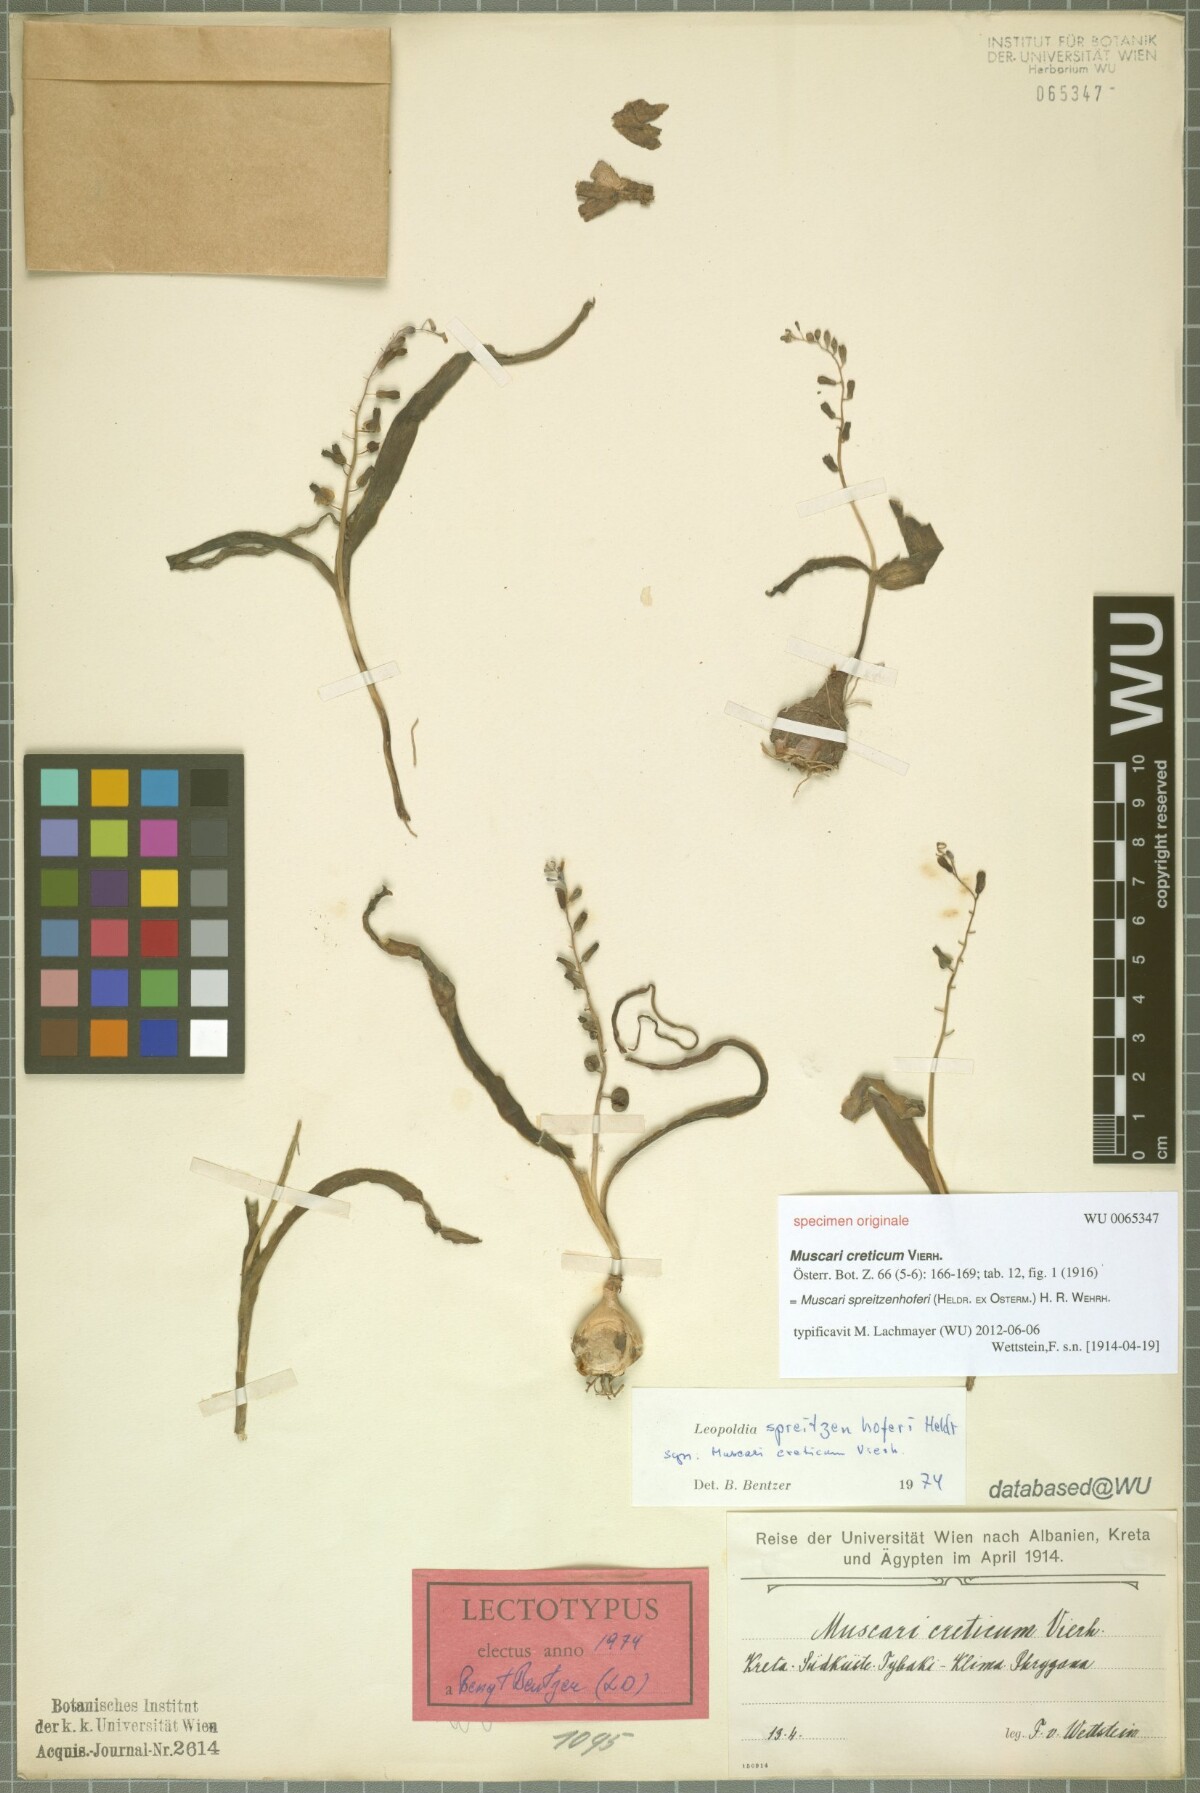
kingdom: Plantae
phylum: Tracheophyta
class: Liliopsida
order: Asparagales
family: Asparagaceae
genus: Muscari
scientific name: Muscari spreitzenhoferi
